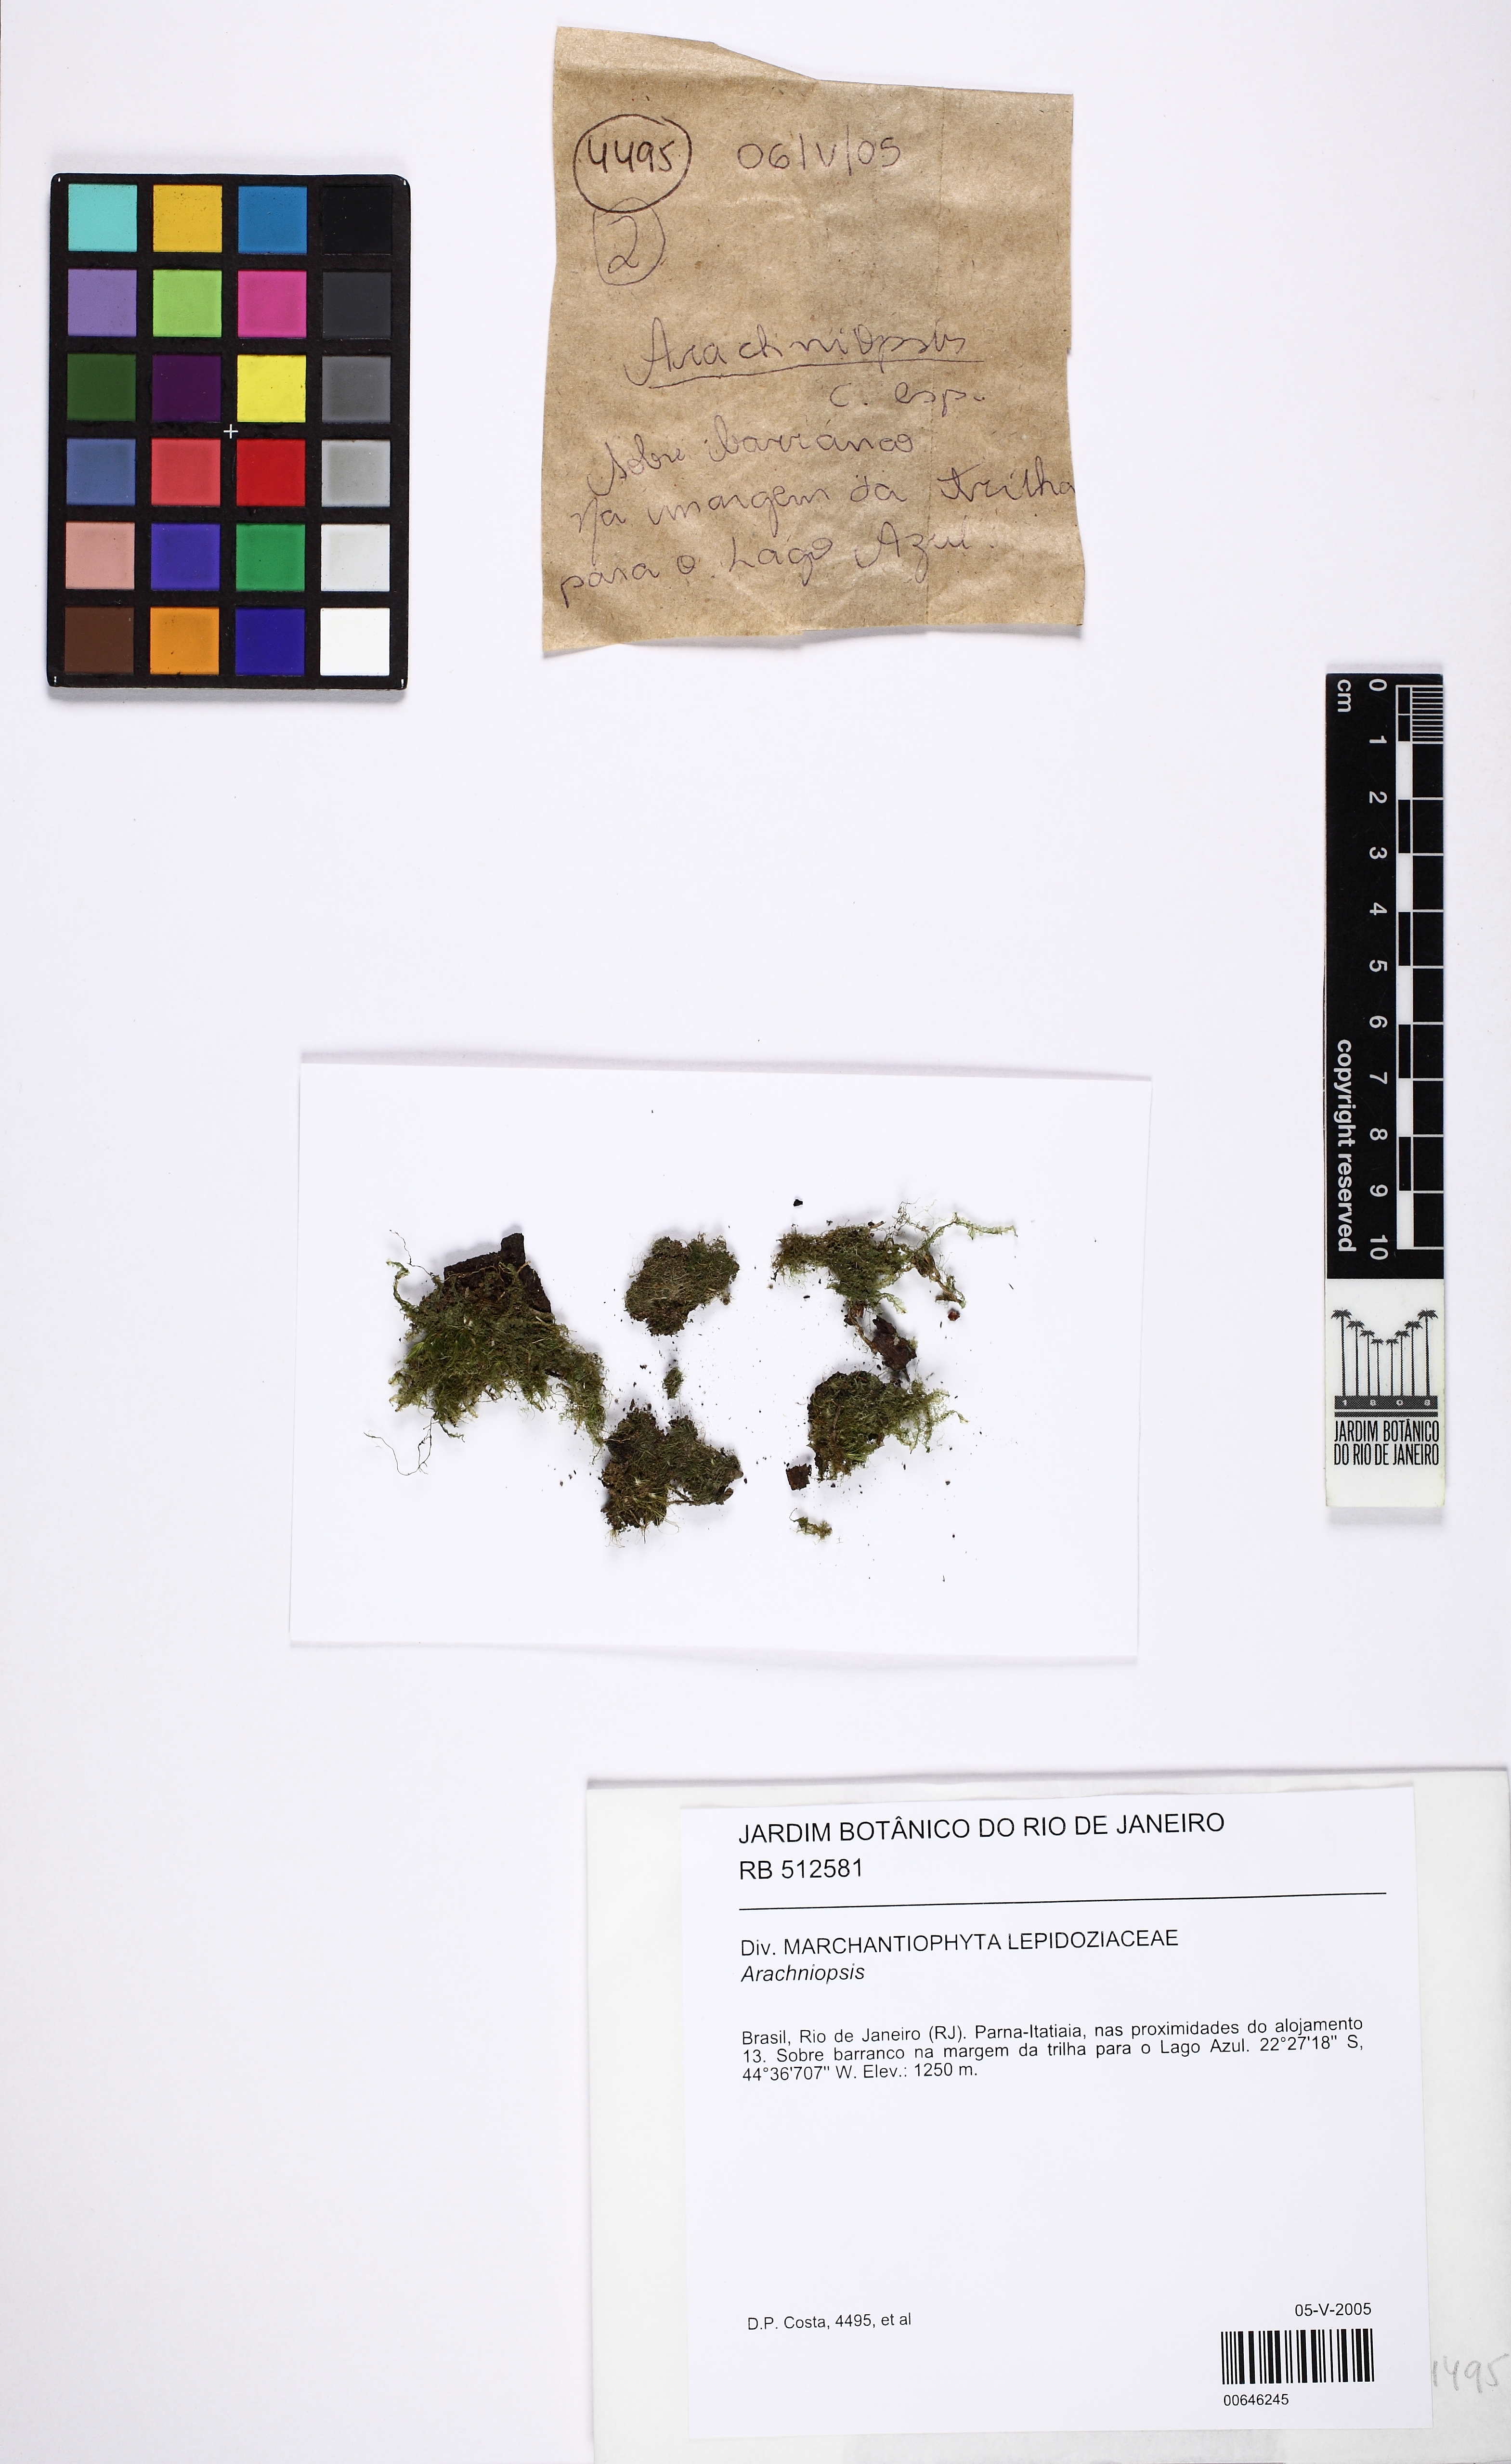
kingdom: Fungi
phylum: Basidiomycota
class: Agaricomycetes
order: Agaricales
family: Agaricaceae
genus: Arachniopsis
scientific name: Arachniopsis
